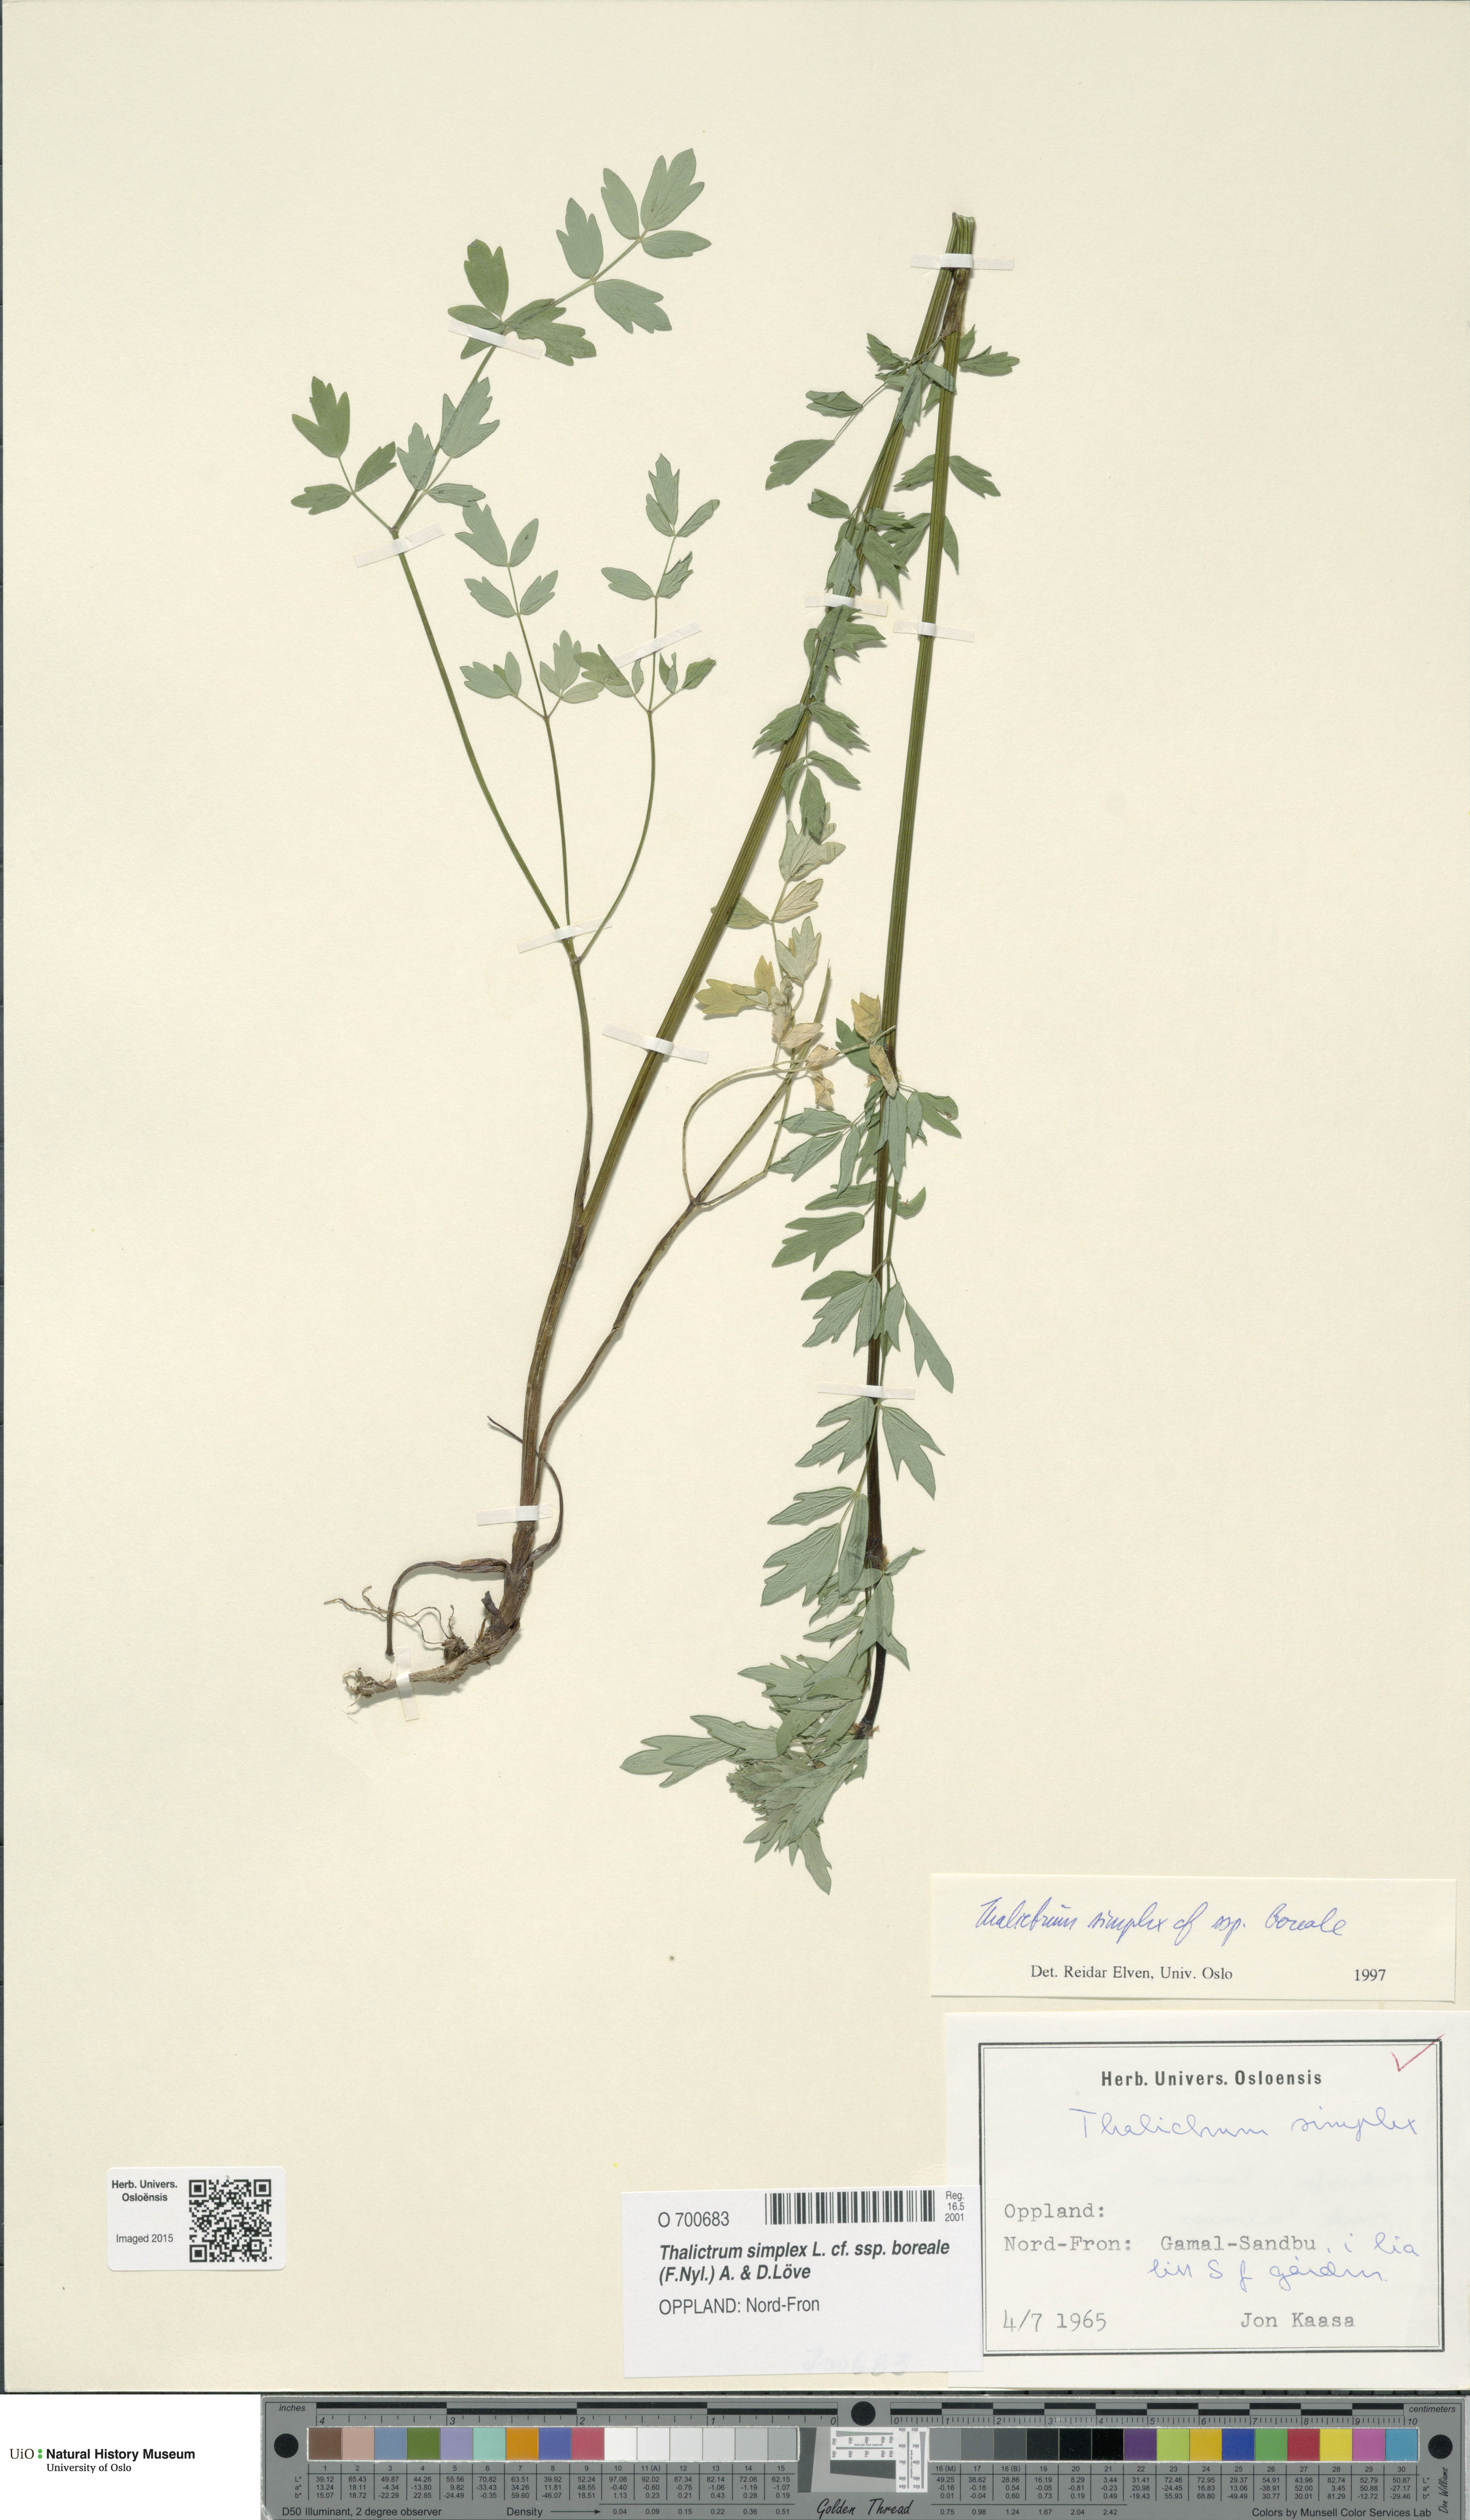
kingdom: Plantae
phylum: Tracheophyta
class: Magnoliopsida
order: Ranunculales
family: Ranunculaceae
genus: Thalictrum
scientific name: Thalictrum simplex
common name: Small meadow-rue
